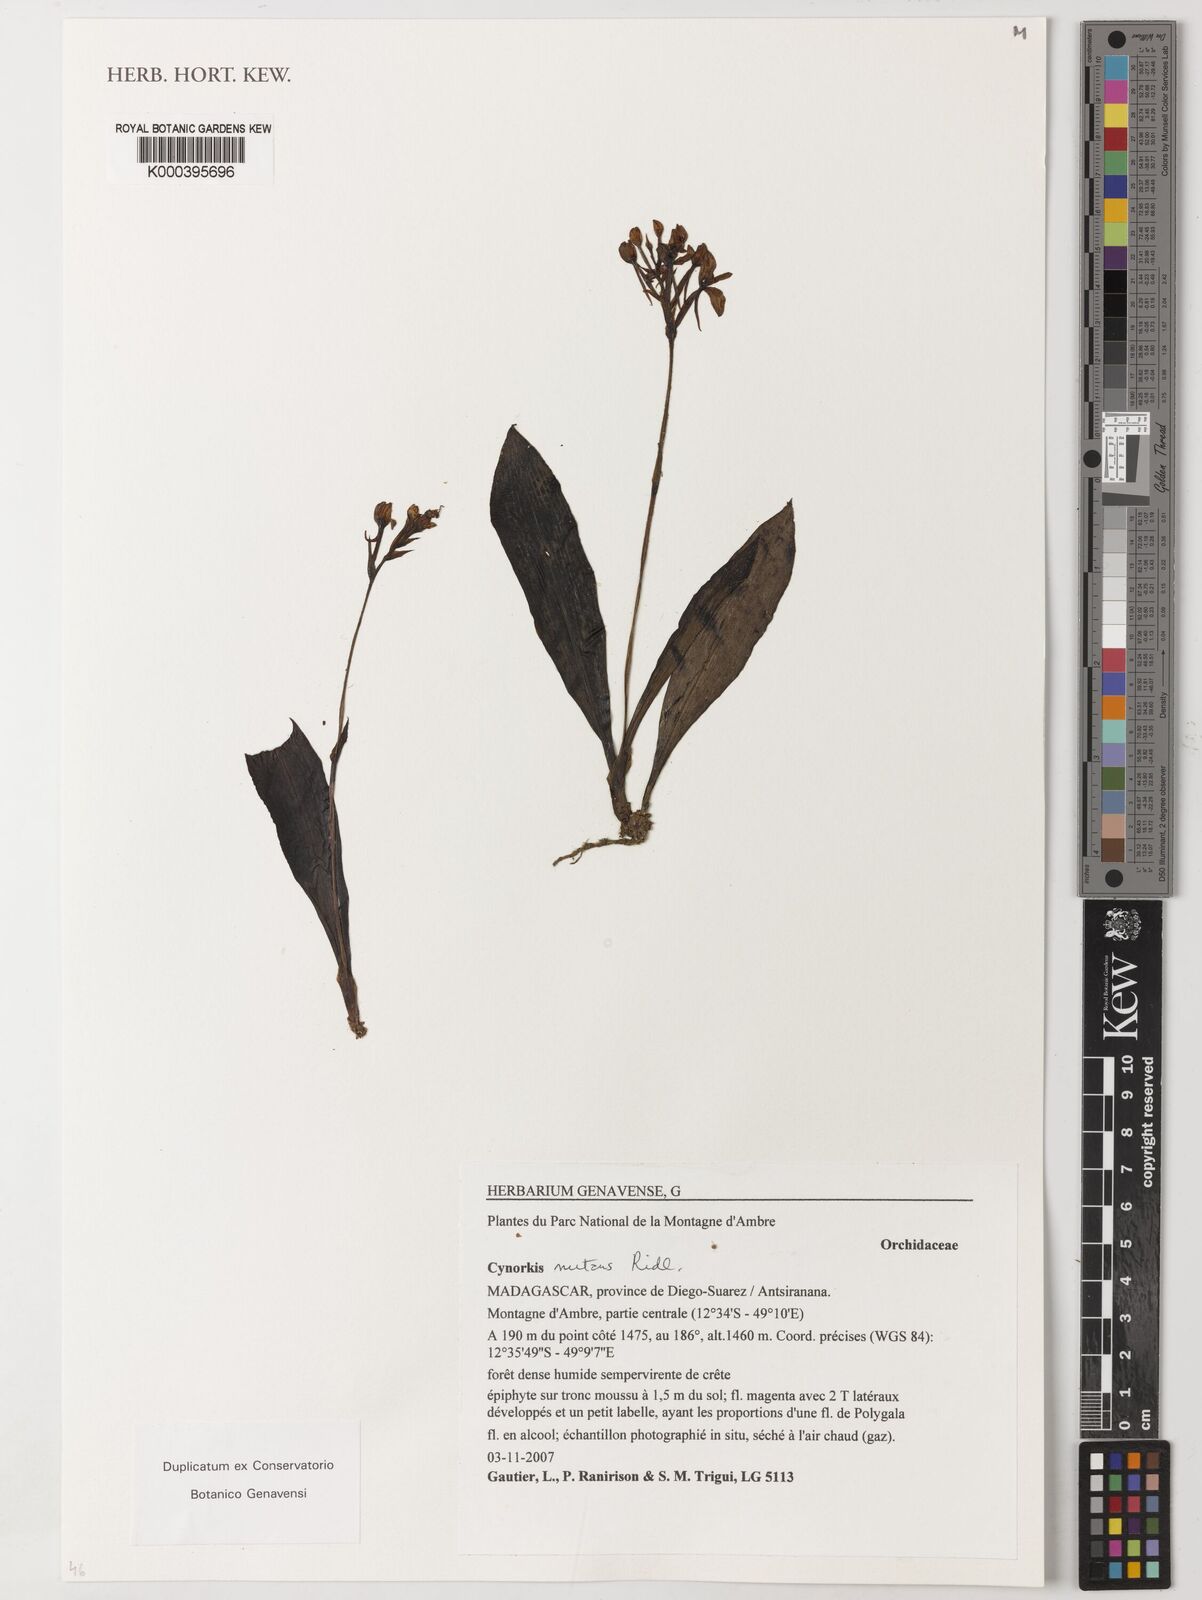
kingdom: Plantae
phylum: Tracheophyta
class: Liliopsida
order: Asparagales
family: Orchidaceae
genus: Cynorkis
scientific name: Cynorkis nutans
